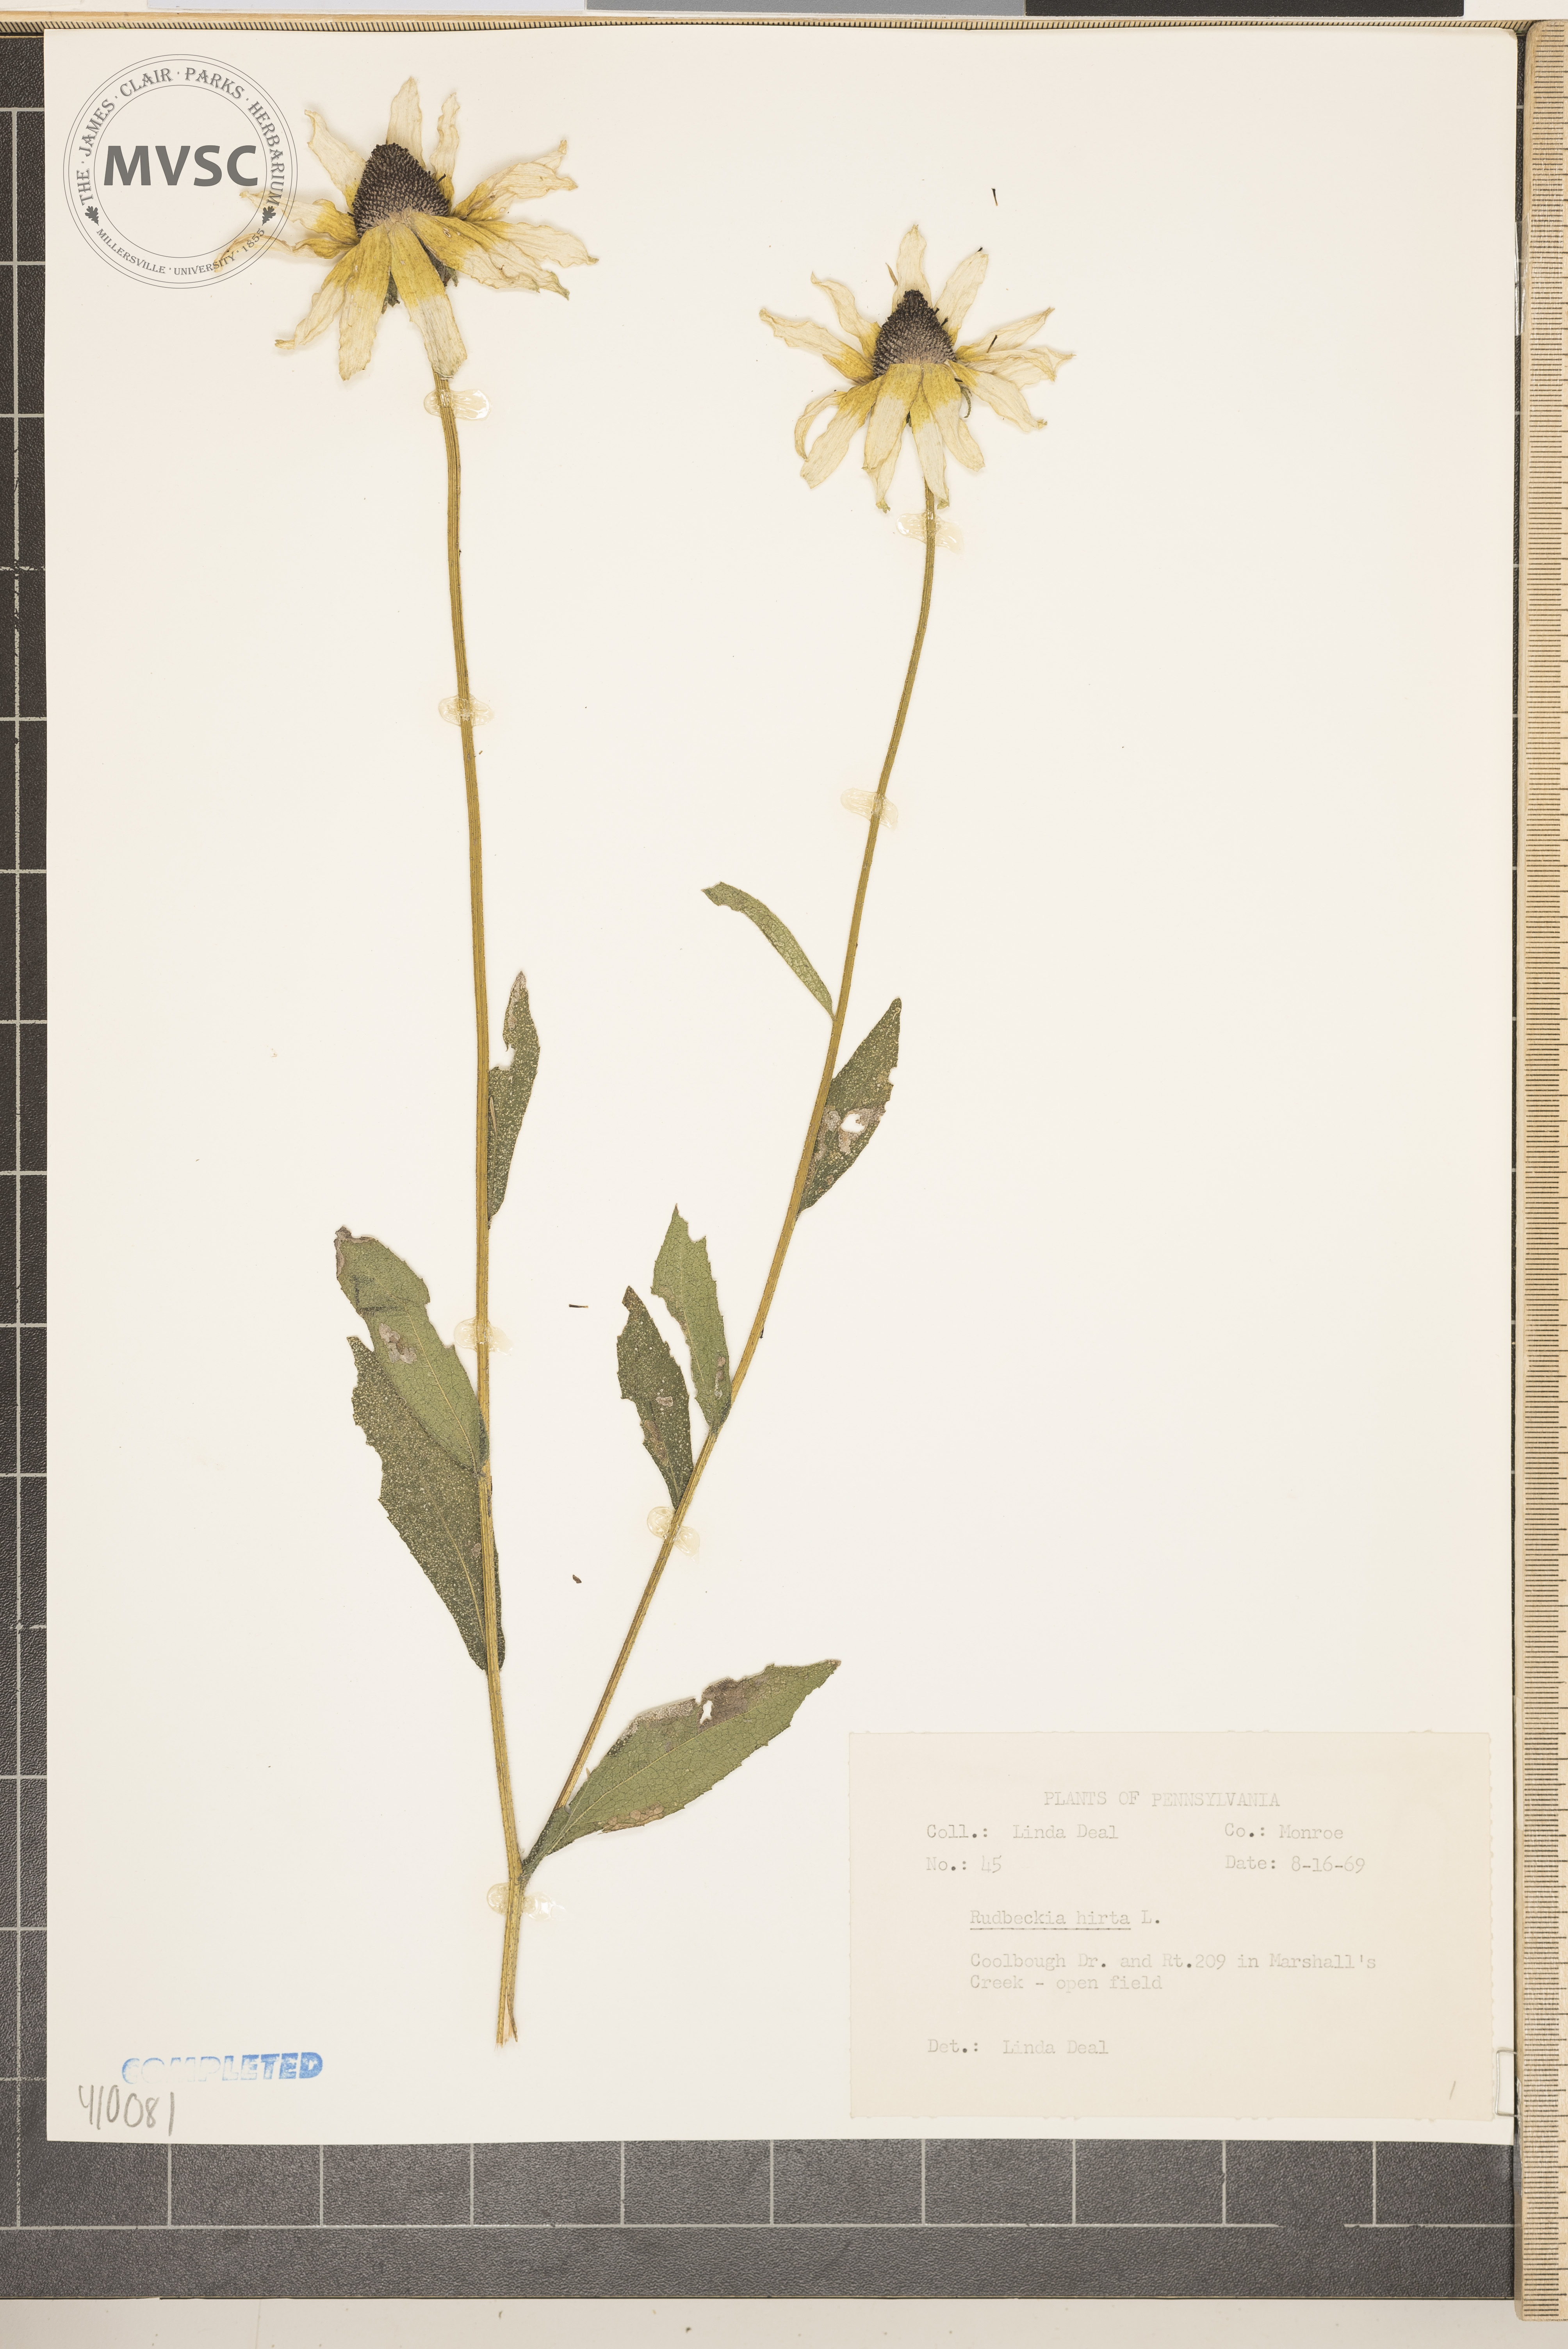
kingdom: Plantae
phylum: Tracheophyta
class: Magnoliopsida
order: Asterales
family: Asteraceae
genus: Rudbeckia
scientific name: Rudbeckia hirta
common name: Black-eyed-susan
